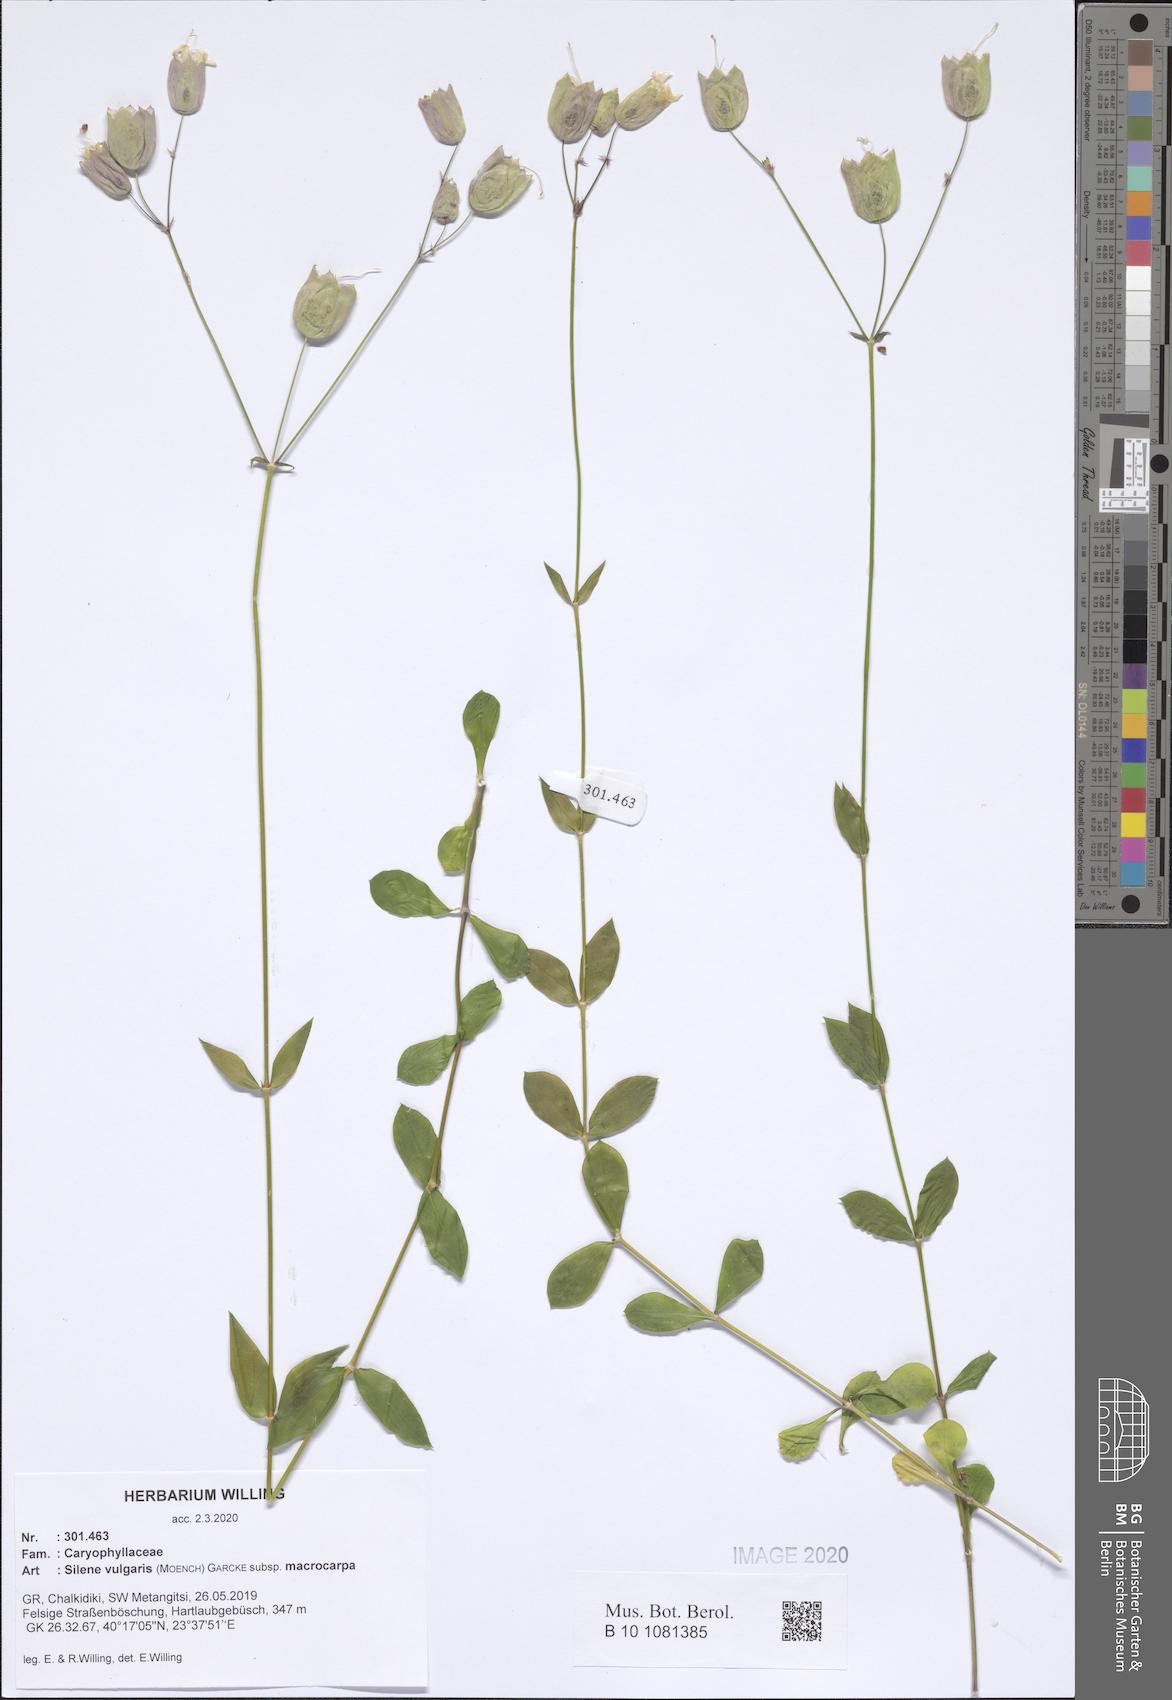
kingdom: Plantae
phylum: Tracheophyta
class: Magnoliopsida
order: Caryophyllales
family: Caryophyllaceae
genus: Silene
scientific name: Silene vulgaris
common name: Bladder campion
